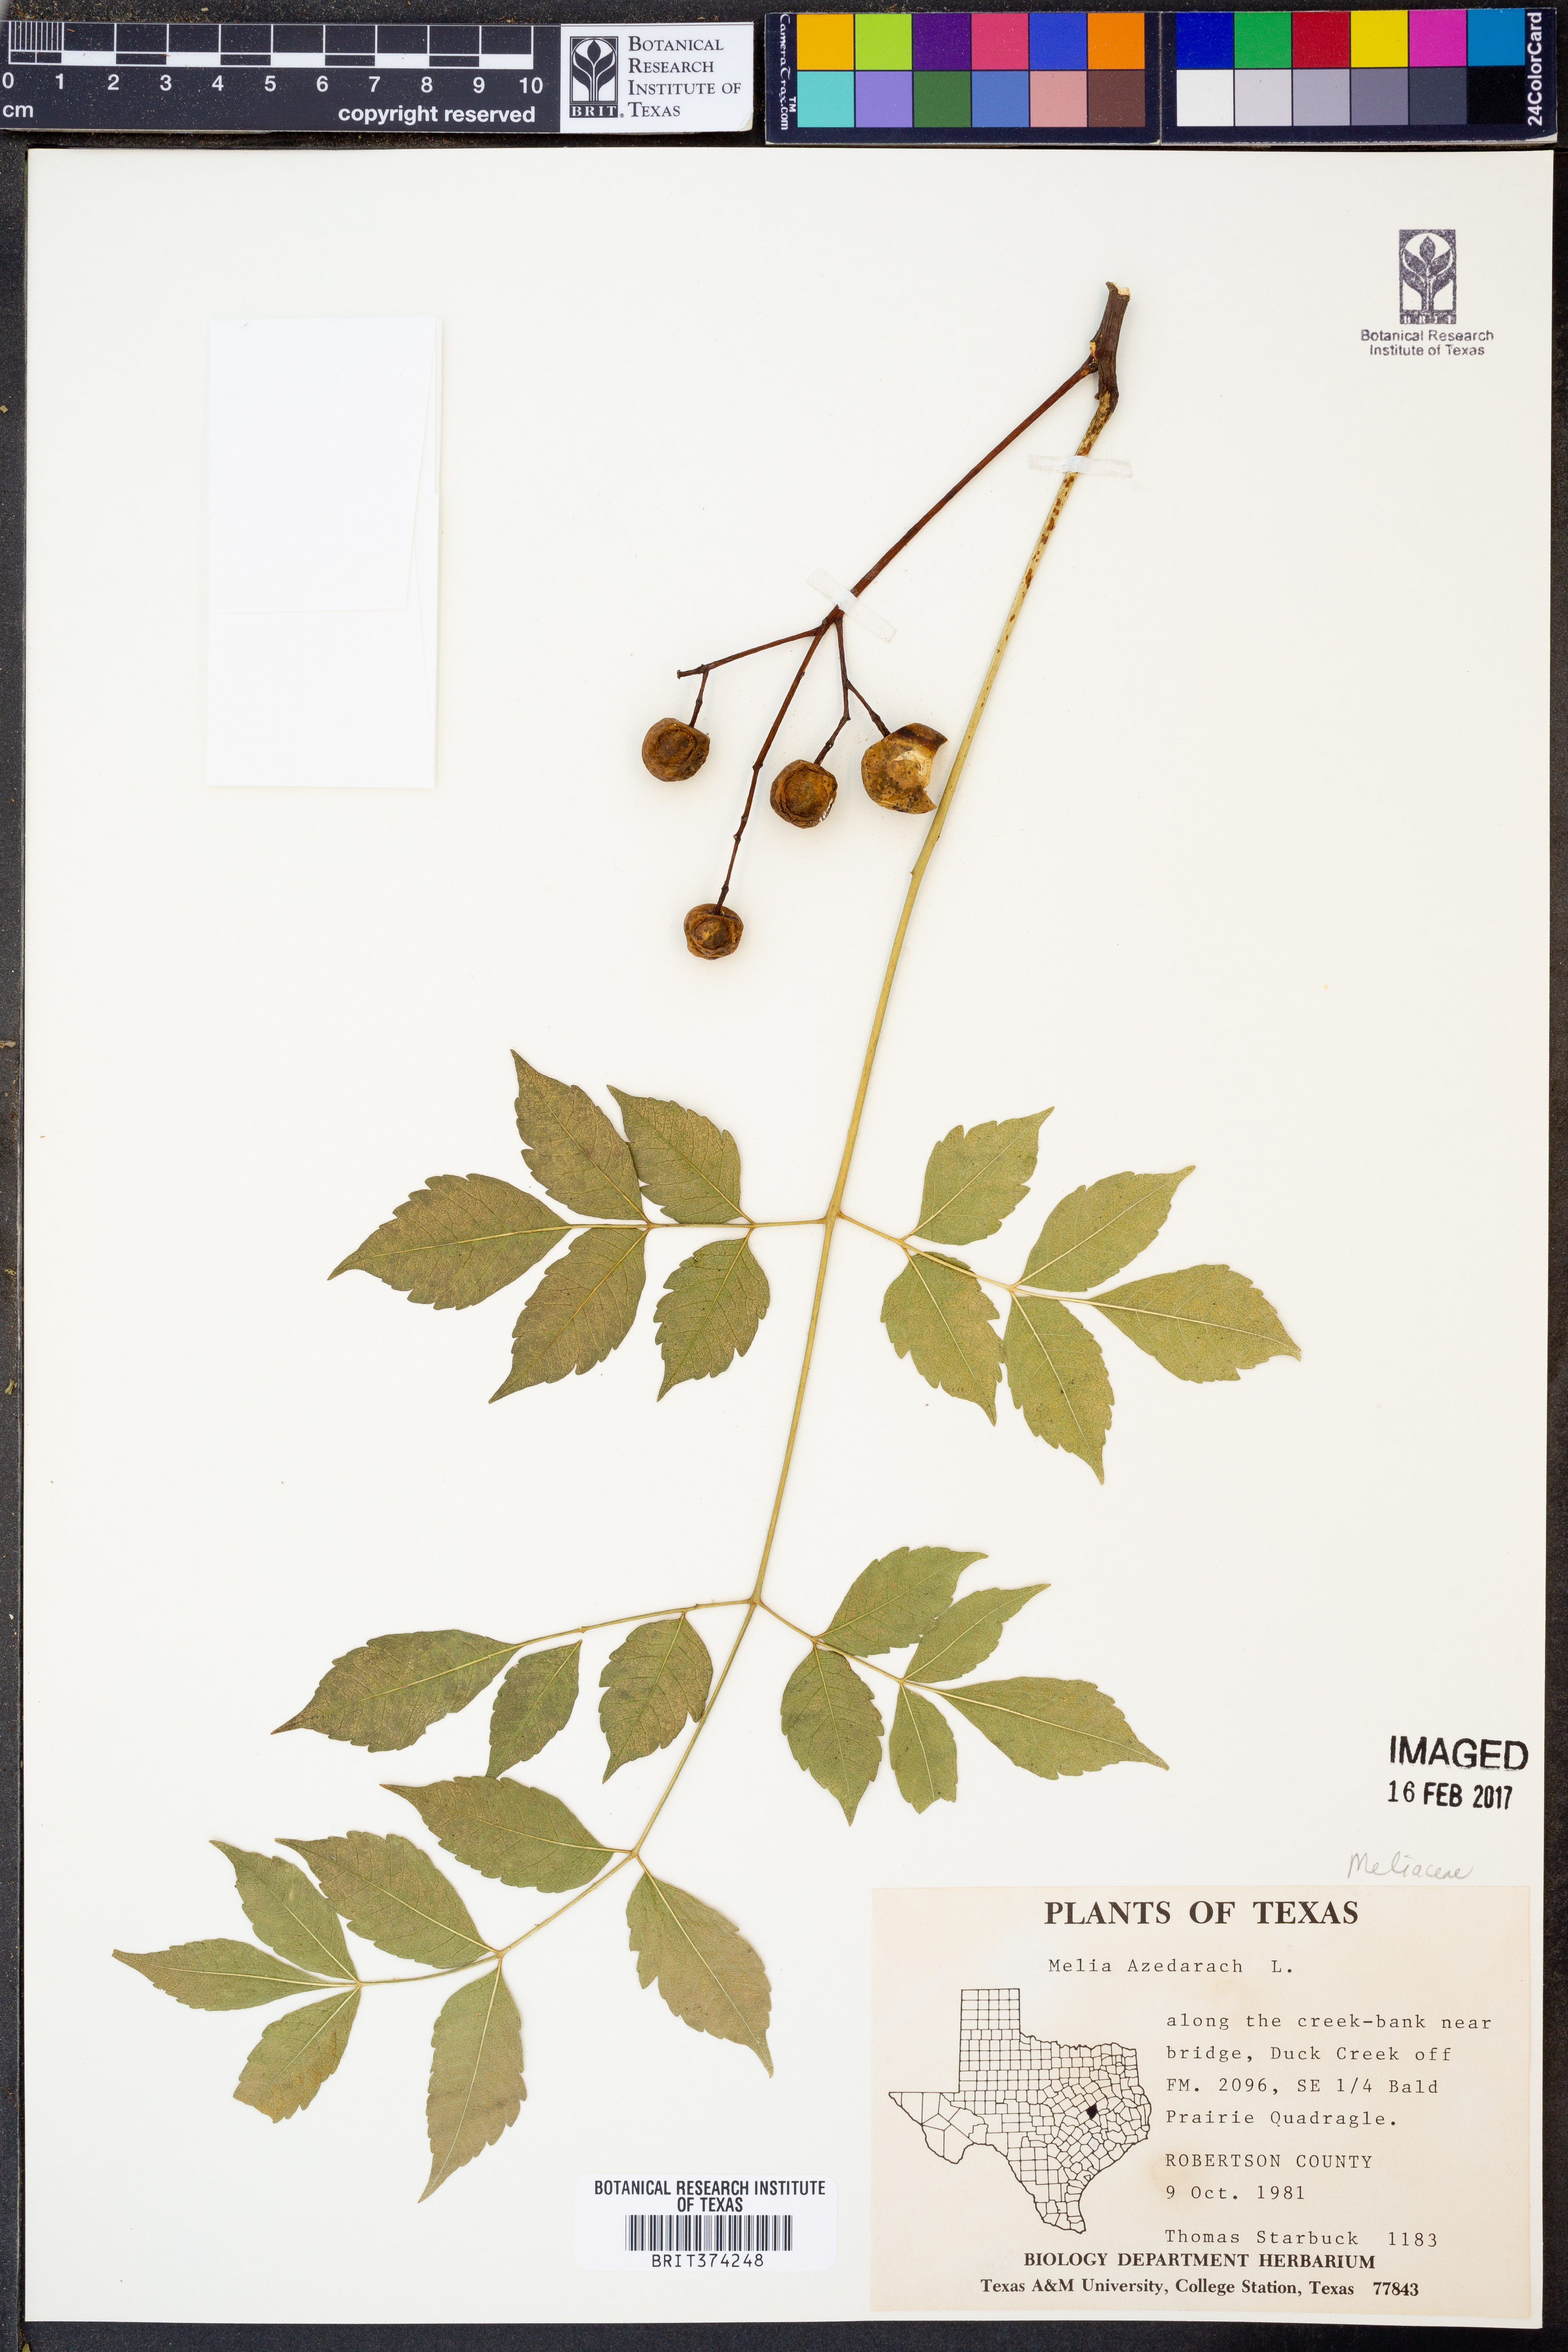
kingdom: Plantae
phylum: Tracheophyta
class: Magnoliopsida
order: Sapindales
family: Meliaceae
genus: Azadirachta
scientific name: Azadirachta indica
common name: Neem
